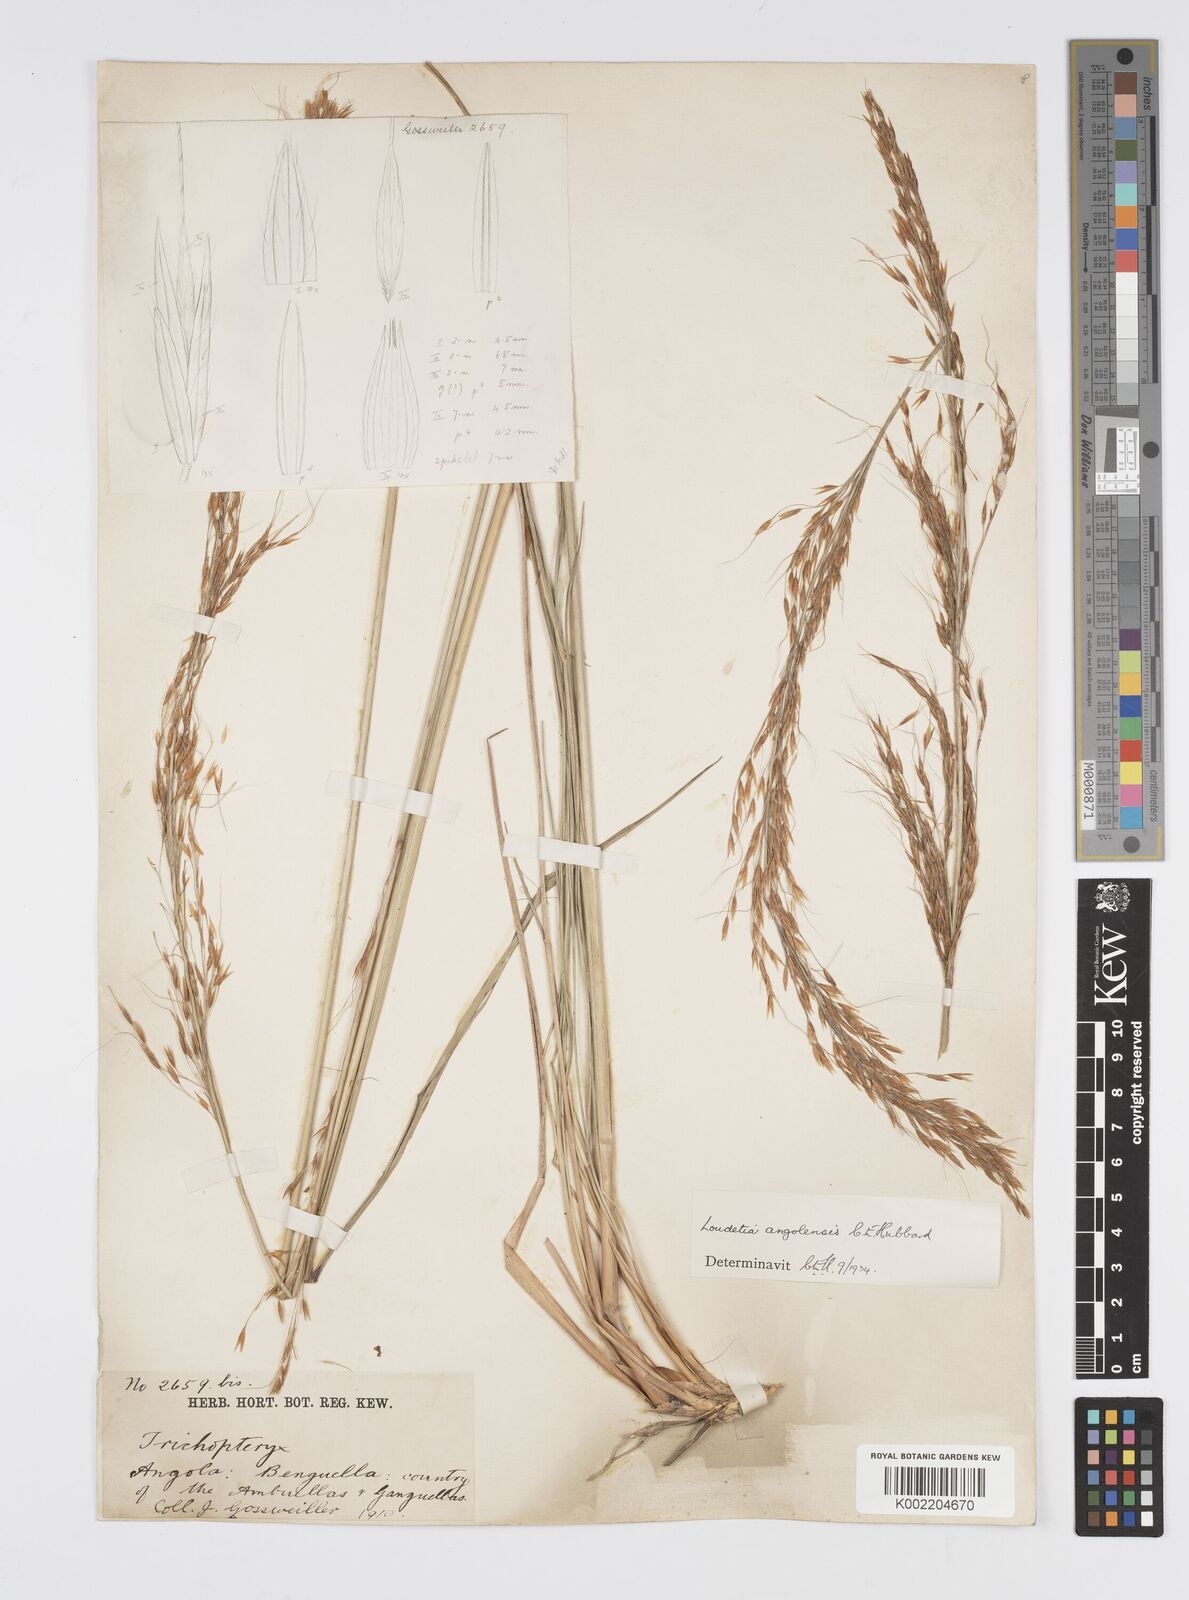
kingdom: Plantae
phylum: Tracheophyta
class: Liliopsida
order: Poales
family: Poaceae
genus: Loudetia
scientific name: Loudetia angolensis
